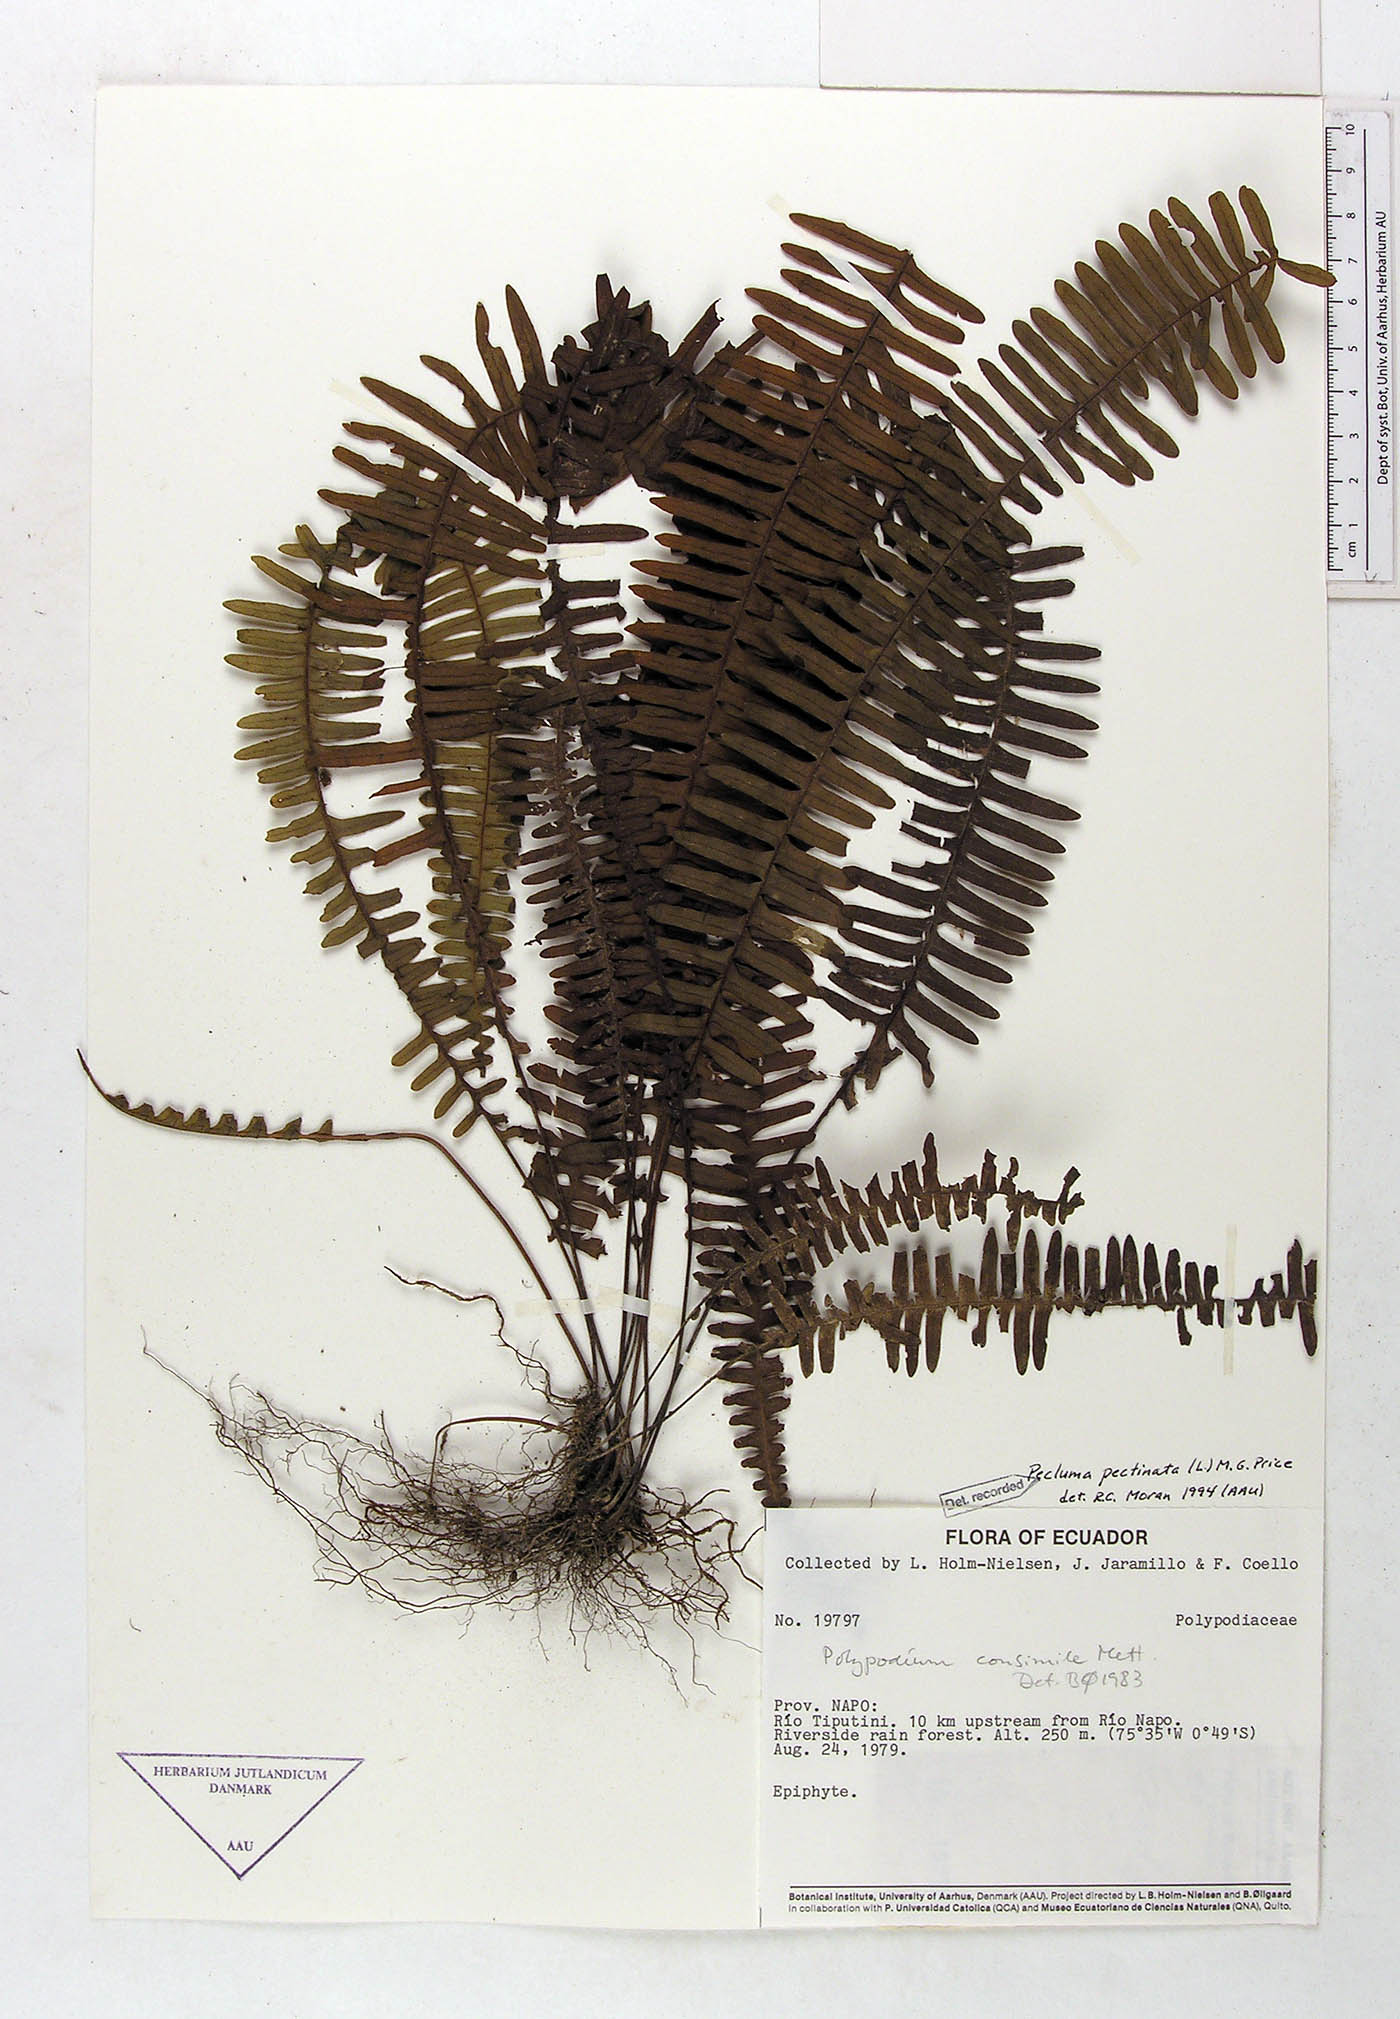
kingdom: Plantae
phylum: Tracheophyta
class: Polypodiopsida
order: Polypodiales
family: Polypodiaceae
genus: Pecluma
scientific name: Pecluma pectinata
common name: Msasa fern
